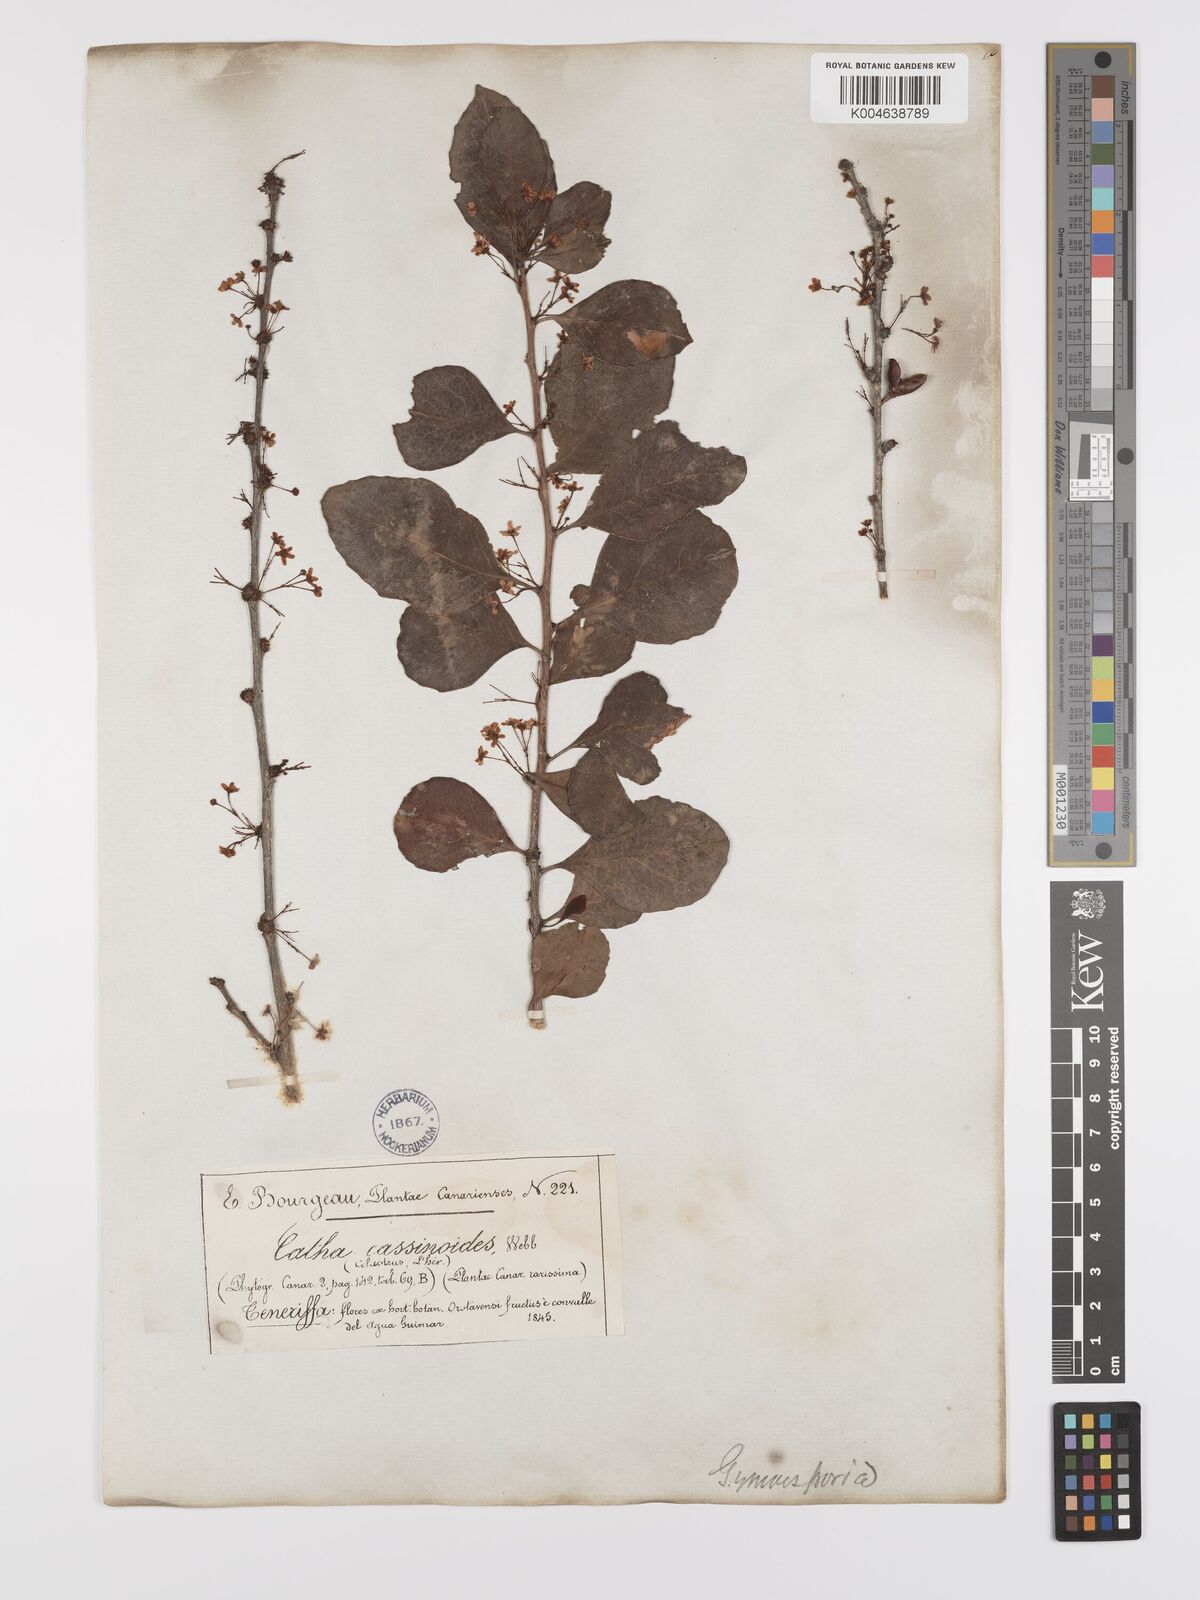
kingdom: Plantae
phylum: Tracheophyta
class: Magnoliopsida
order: Celastrales
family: Celastraceae
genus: Gymnosporia
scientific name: Gymnosporia cassinoides
